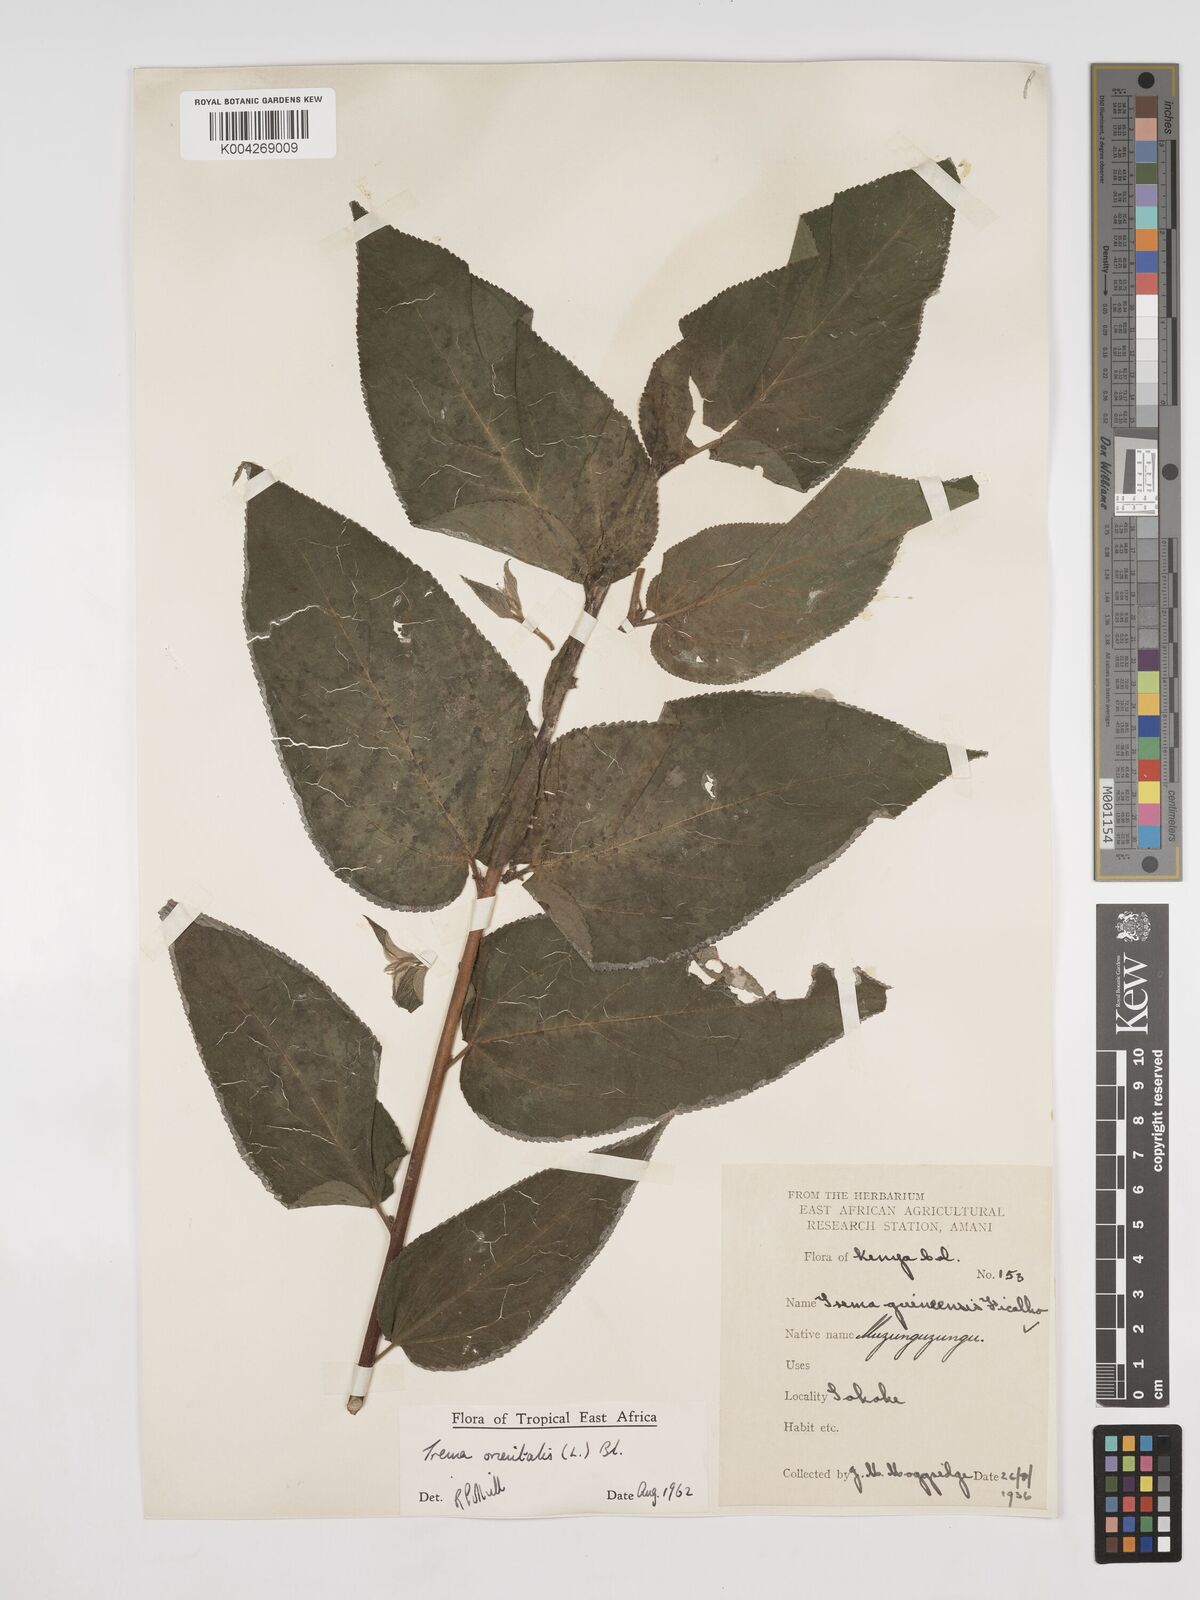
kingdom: Plantae
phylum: Tracheophyta
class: Magnoliopsida
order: Rosales
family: Cannabaceae
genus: Trema
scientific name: Trema orientale
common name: Indian charcoal tree
